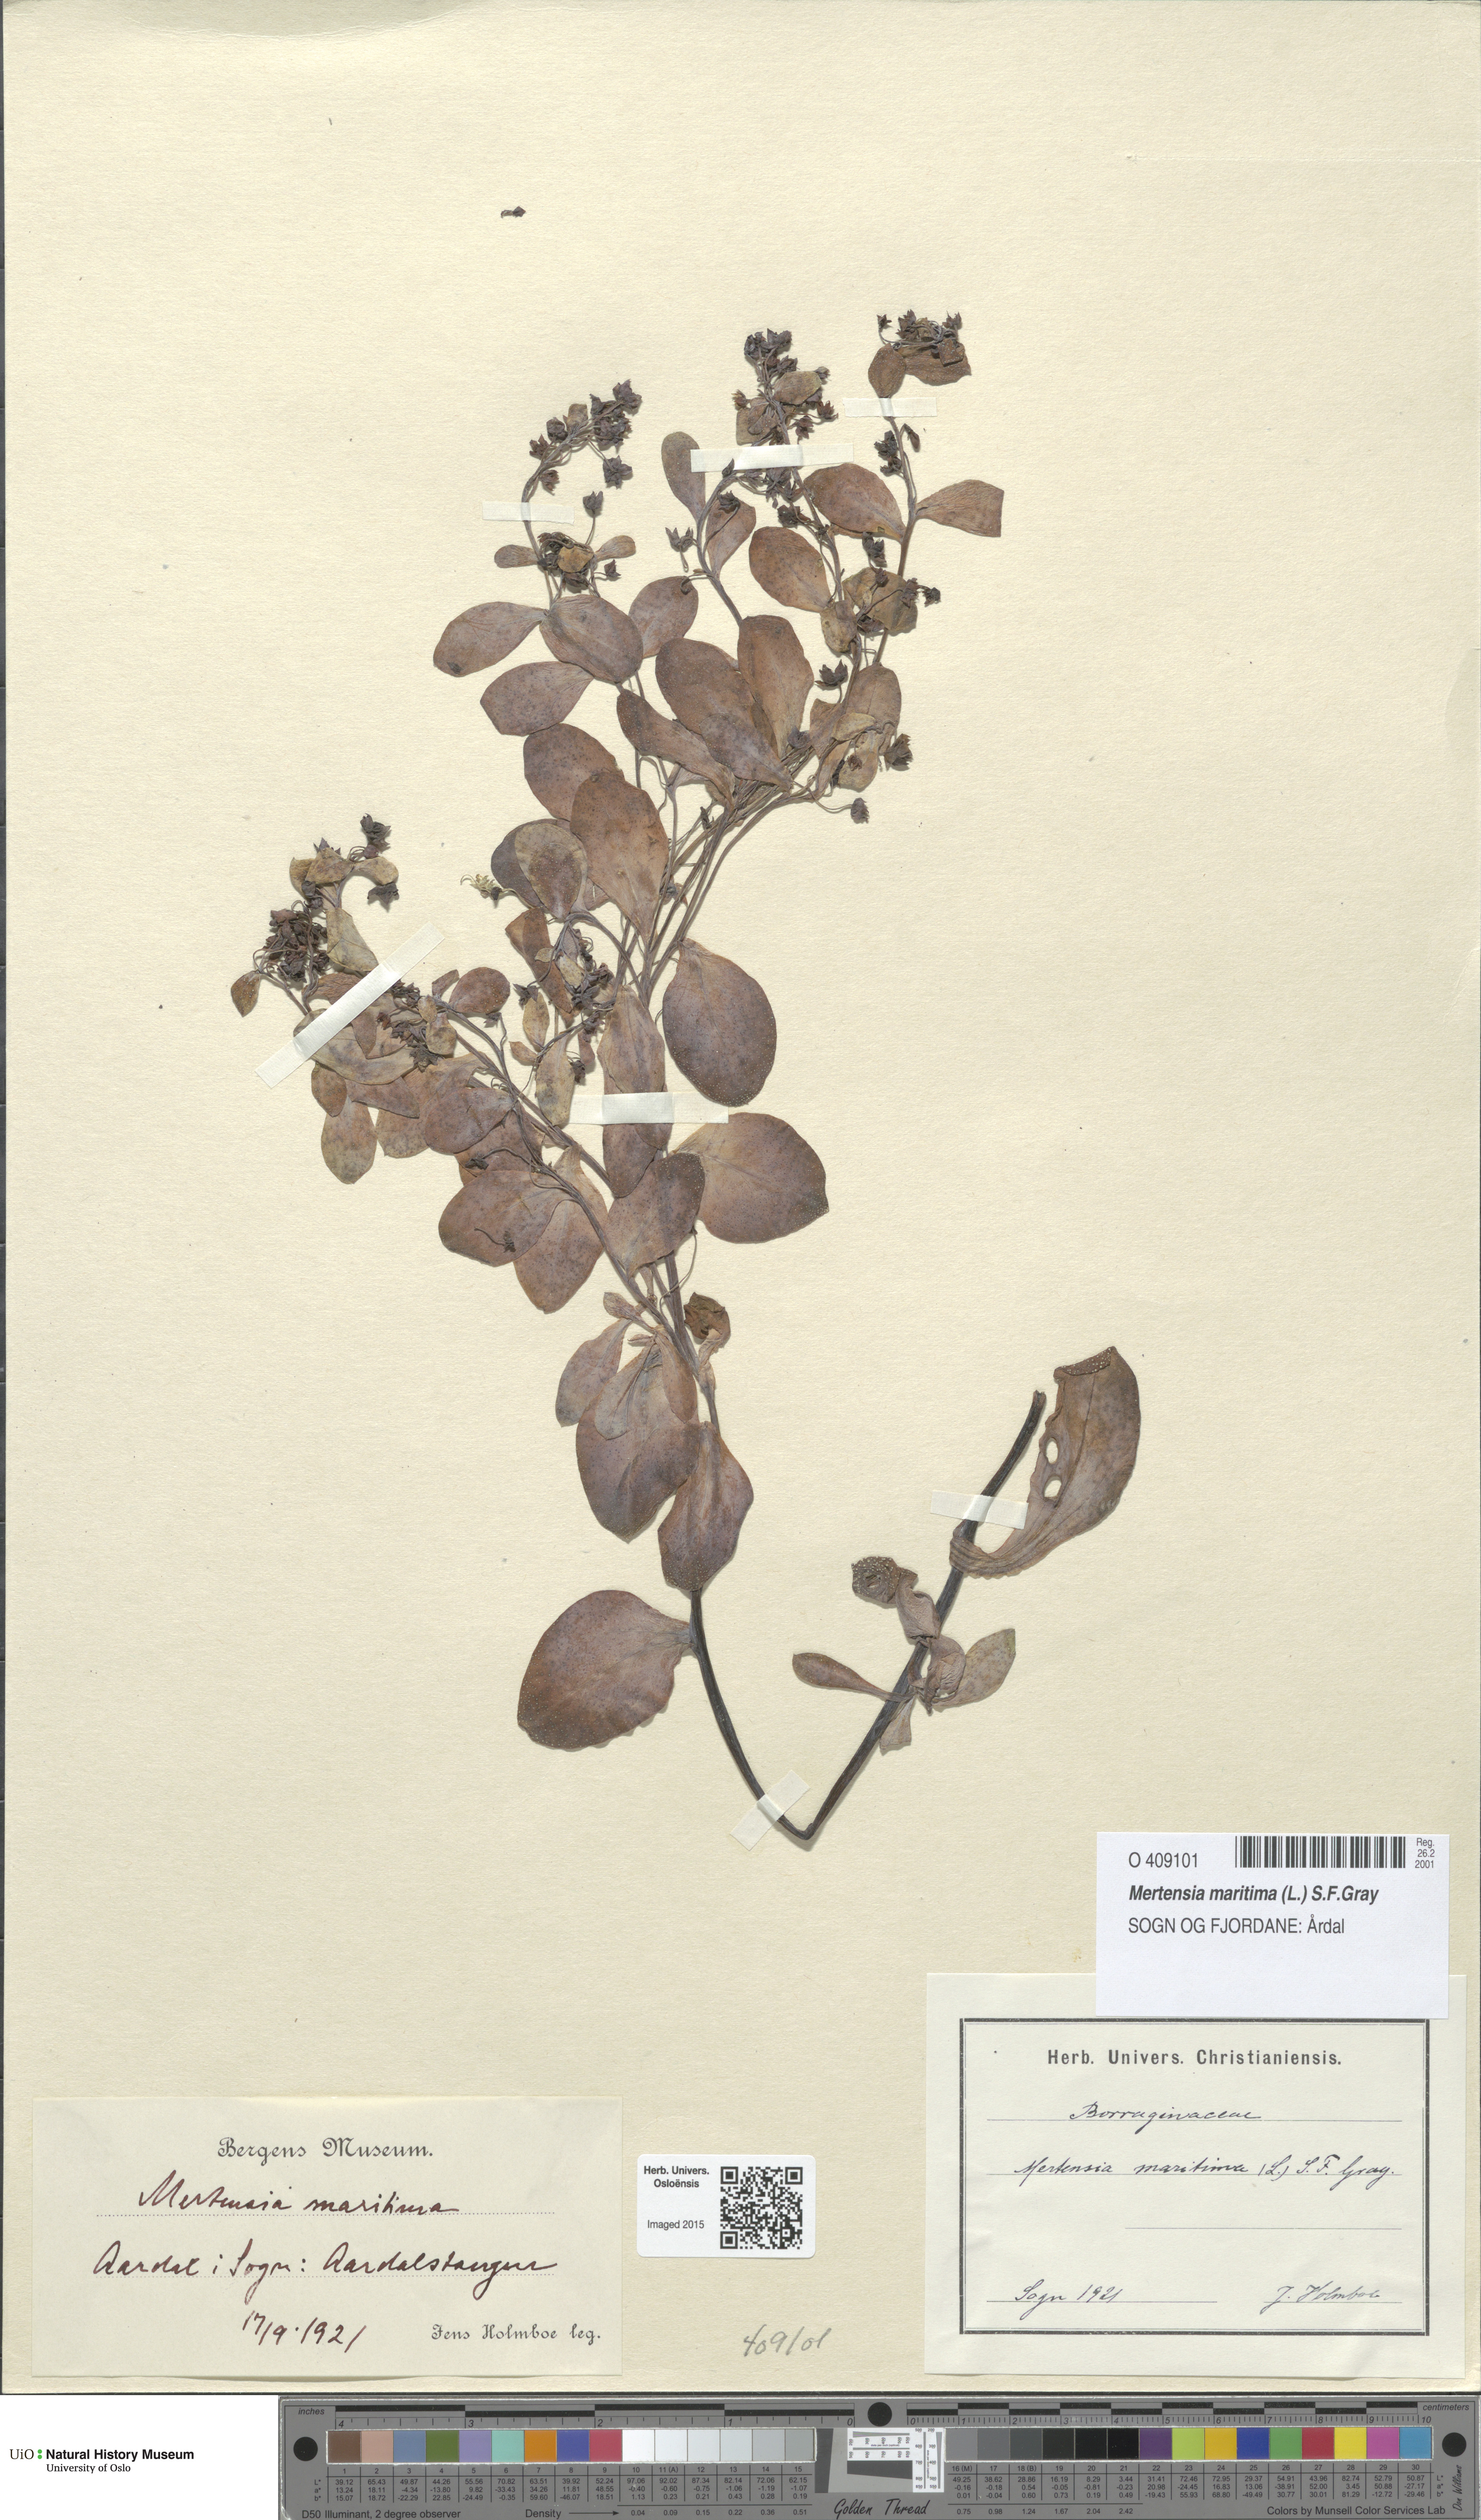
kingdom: Plantae
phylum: Tracheophyta
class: Magnoliopsida
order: Boraginales
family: Boraginaceae
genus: Mertensia
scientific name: Mertensia maritima
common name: Oysterplant
